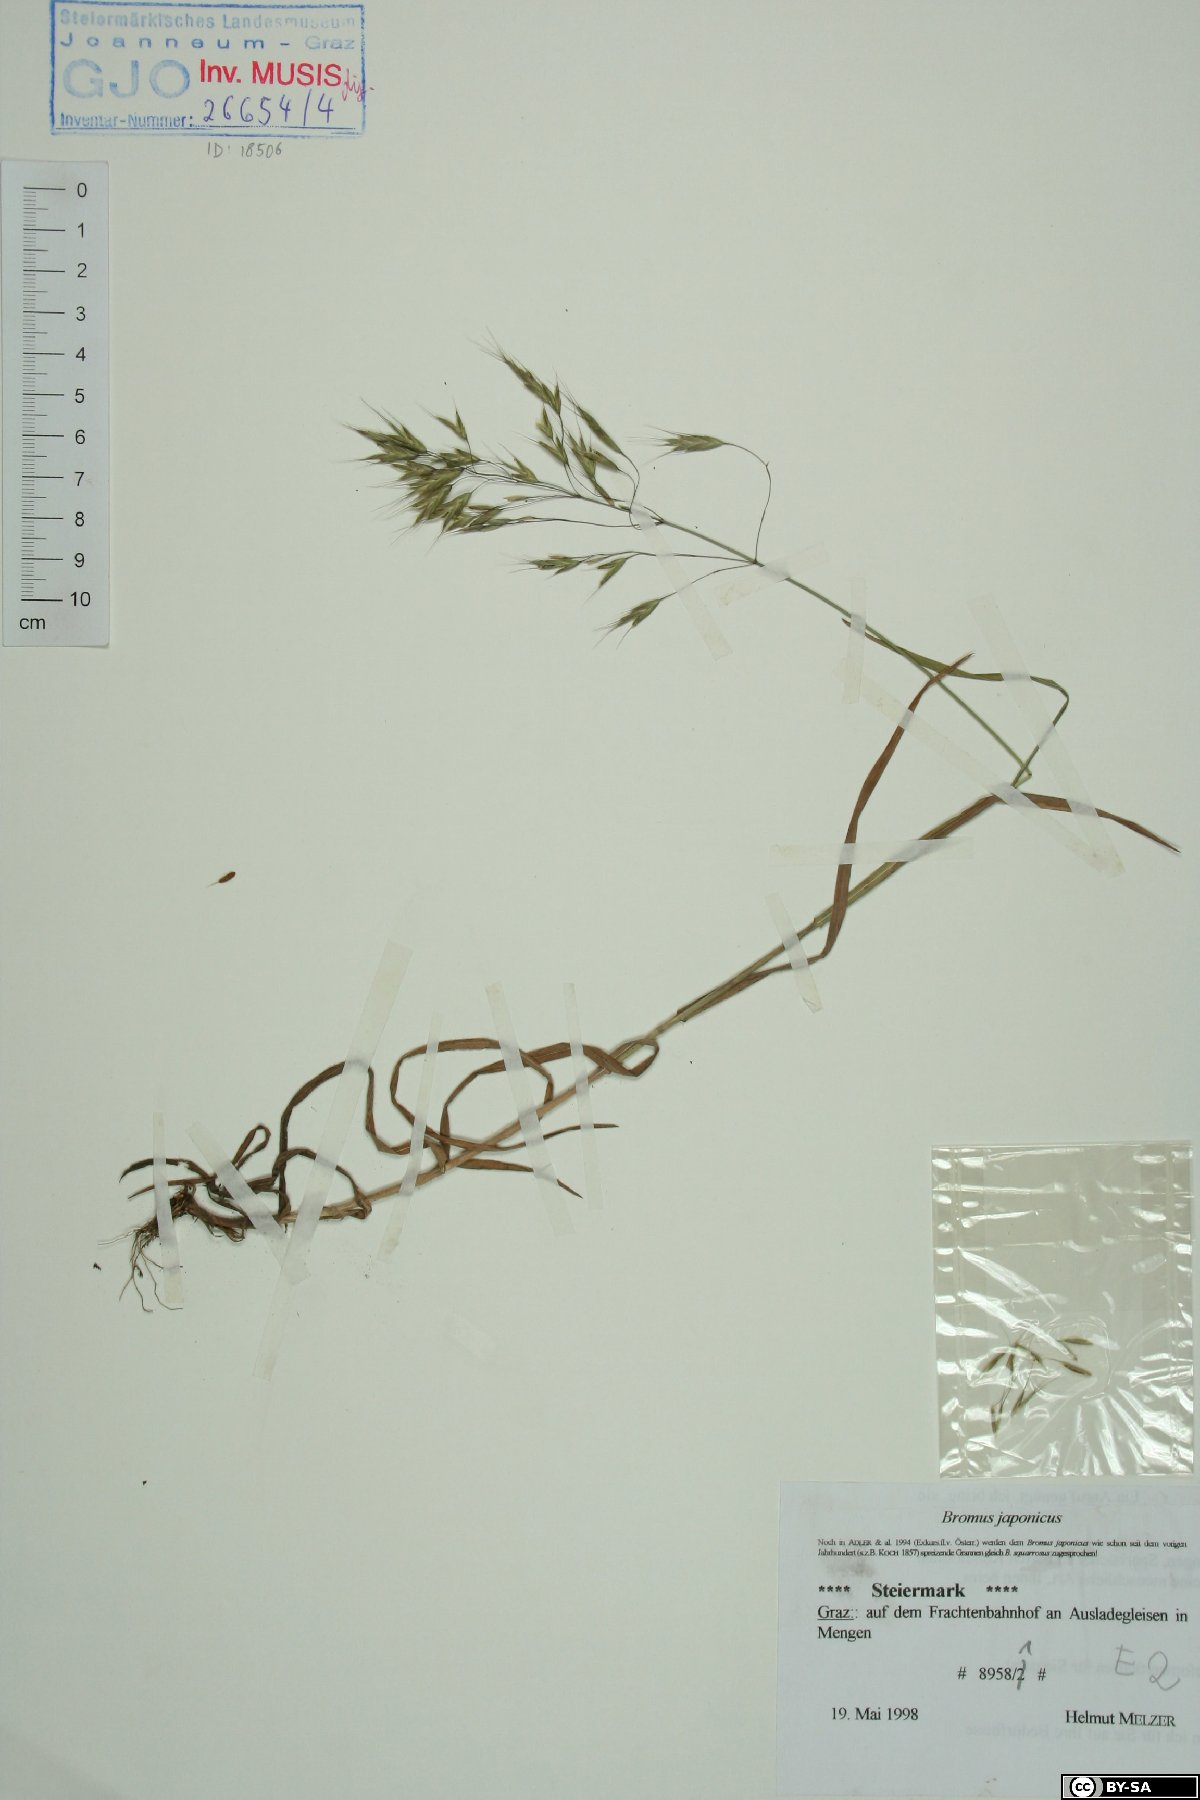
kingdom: Plantae
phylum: Tracheophyta
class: Liliopsida
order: Poales
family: Poaceae
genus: Bromus
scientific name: Bromus japonicus
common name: Japanese brome
